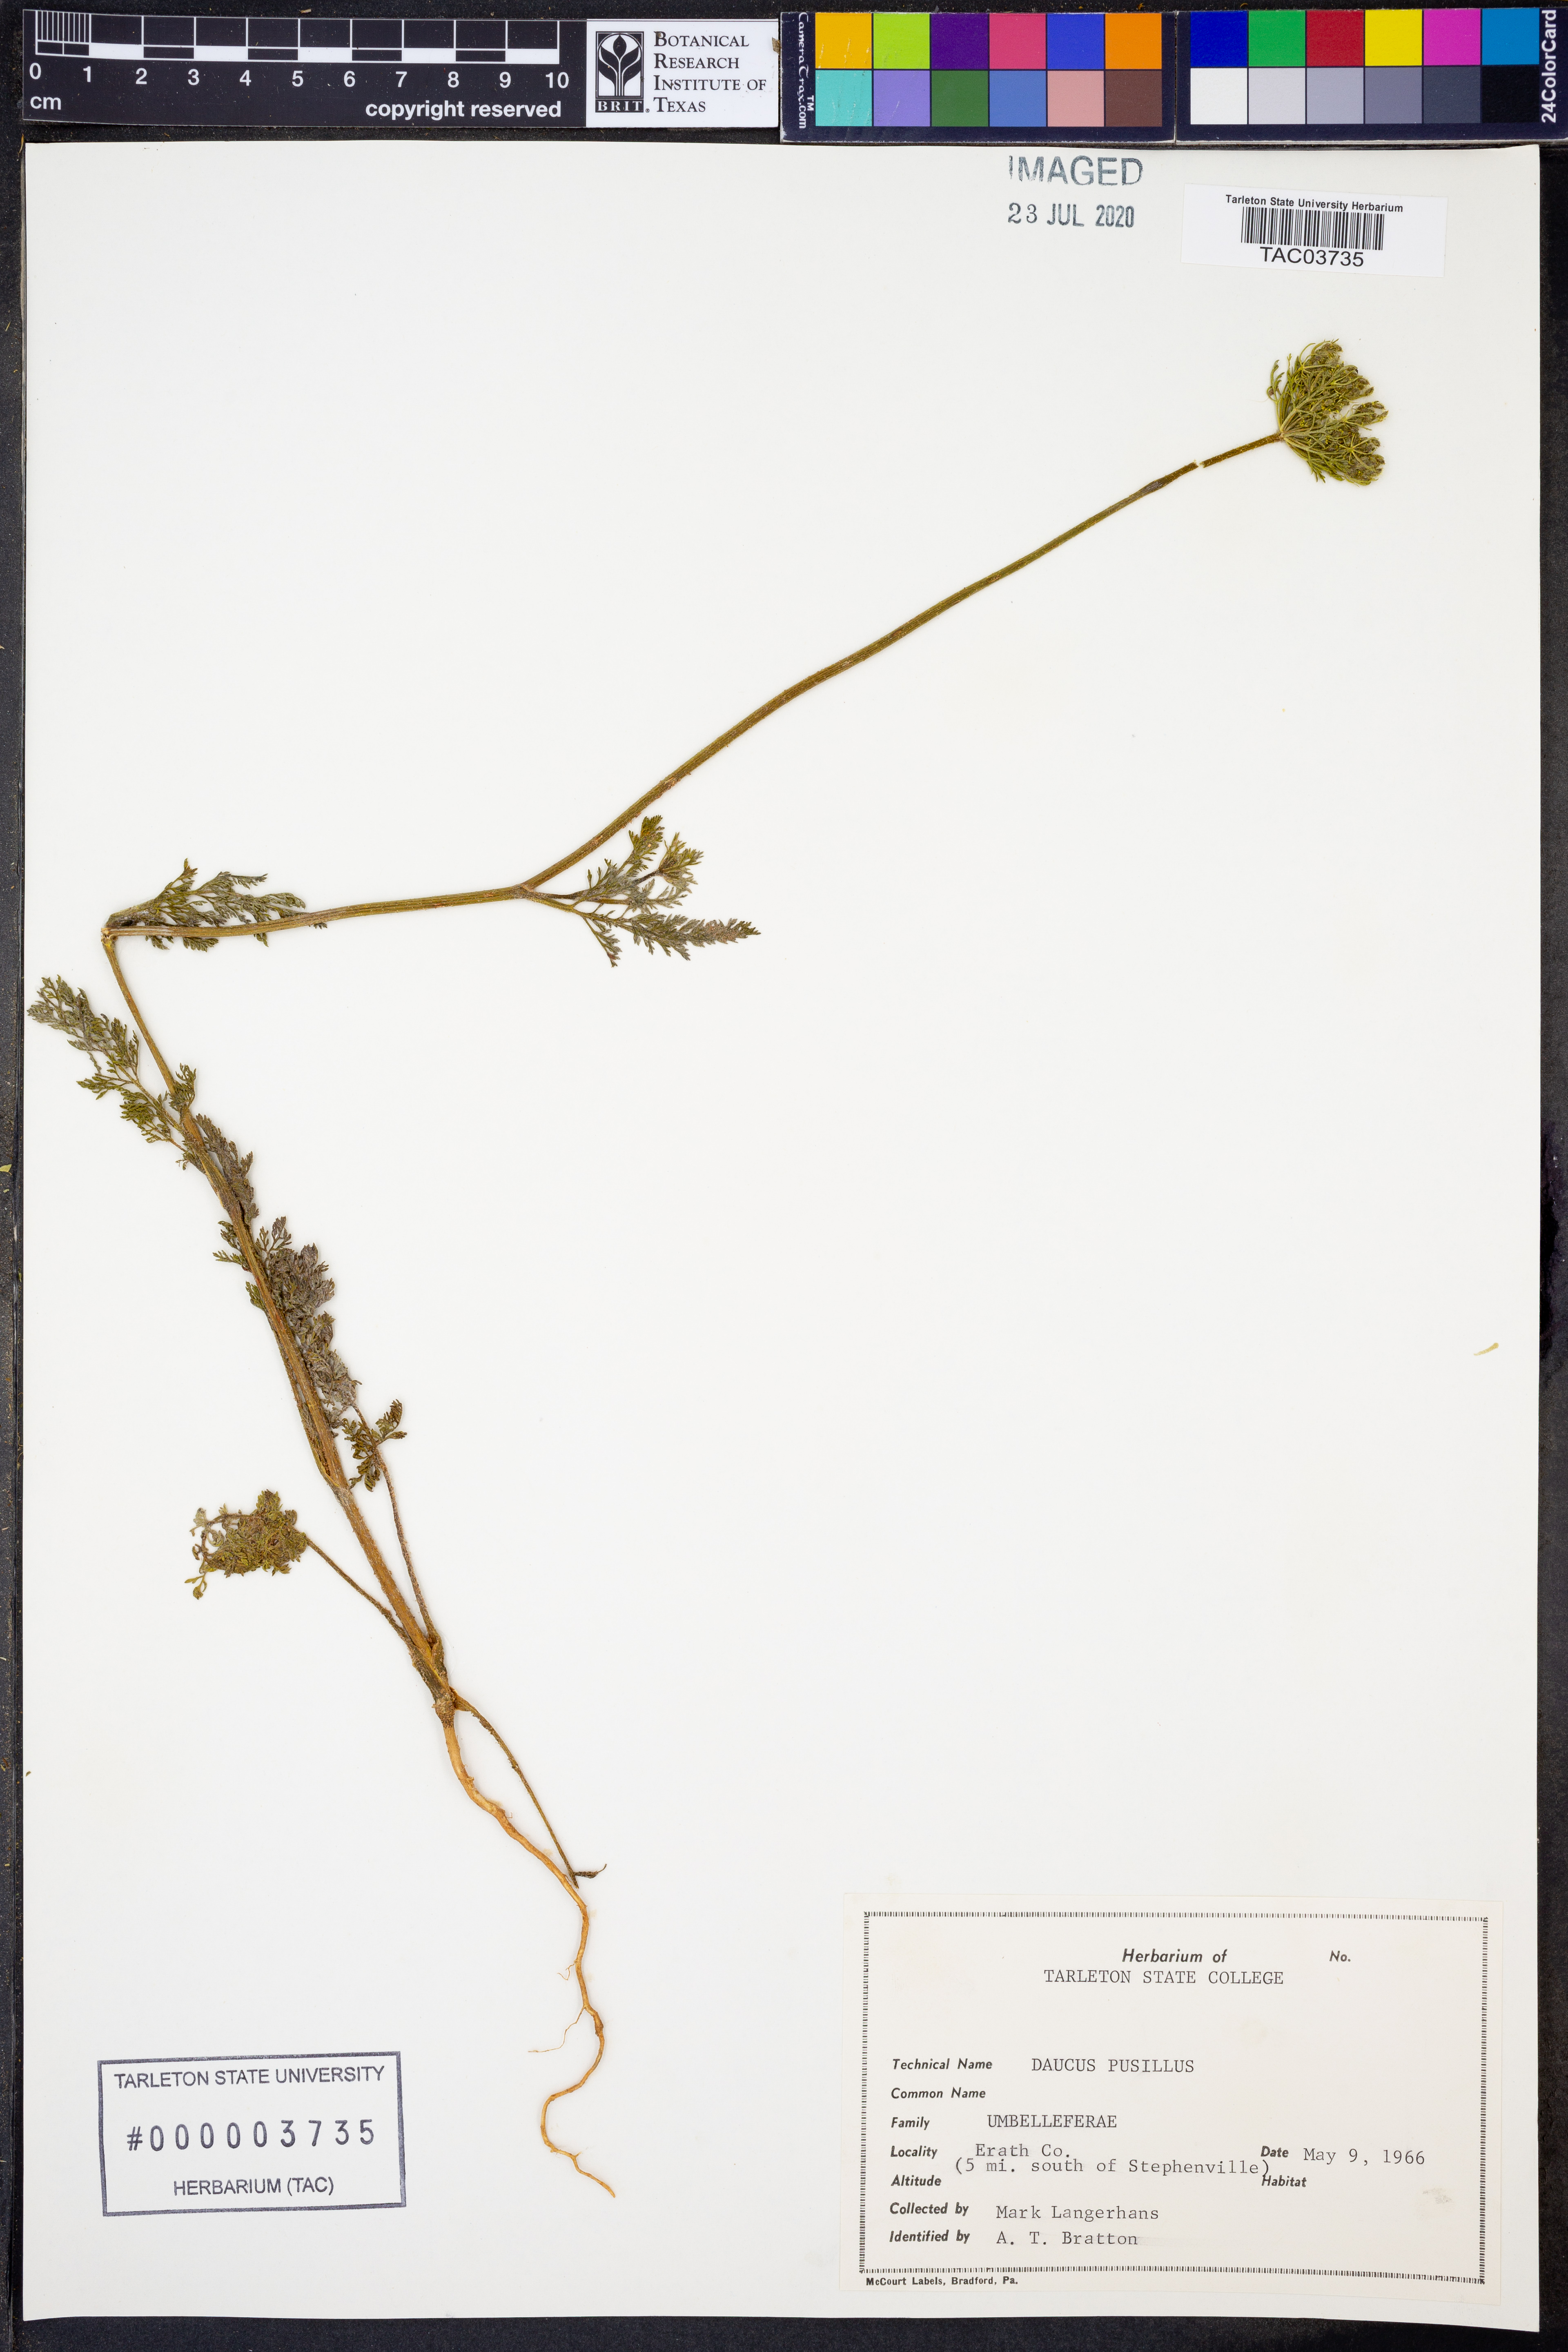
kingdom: Plantae
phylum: Tracheophyta
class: Magnoliopsida
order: Apiales
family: Apiaceae
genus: Daucus
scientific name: Daucus pusillus
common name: Southwest wild carrot
